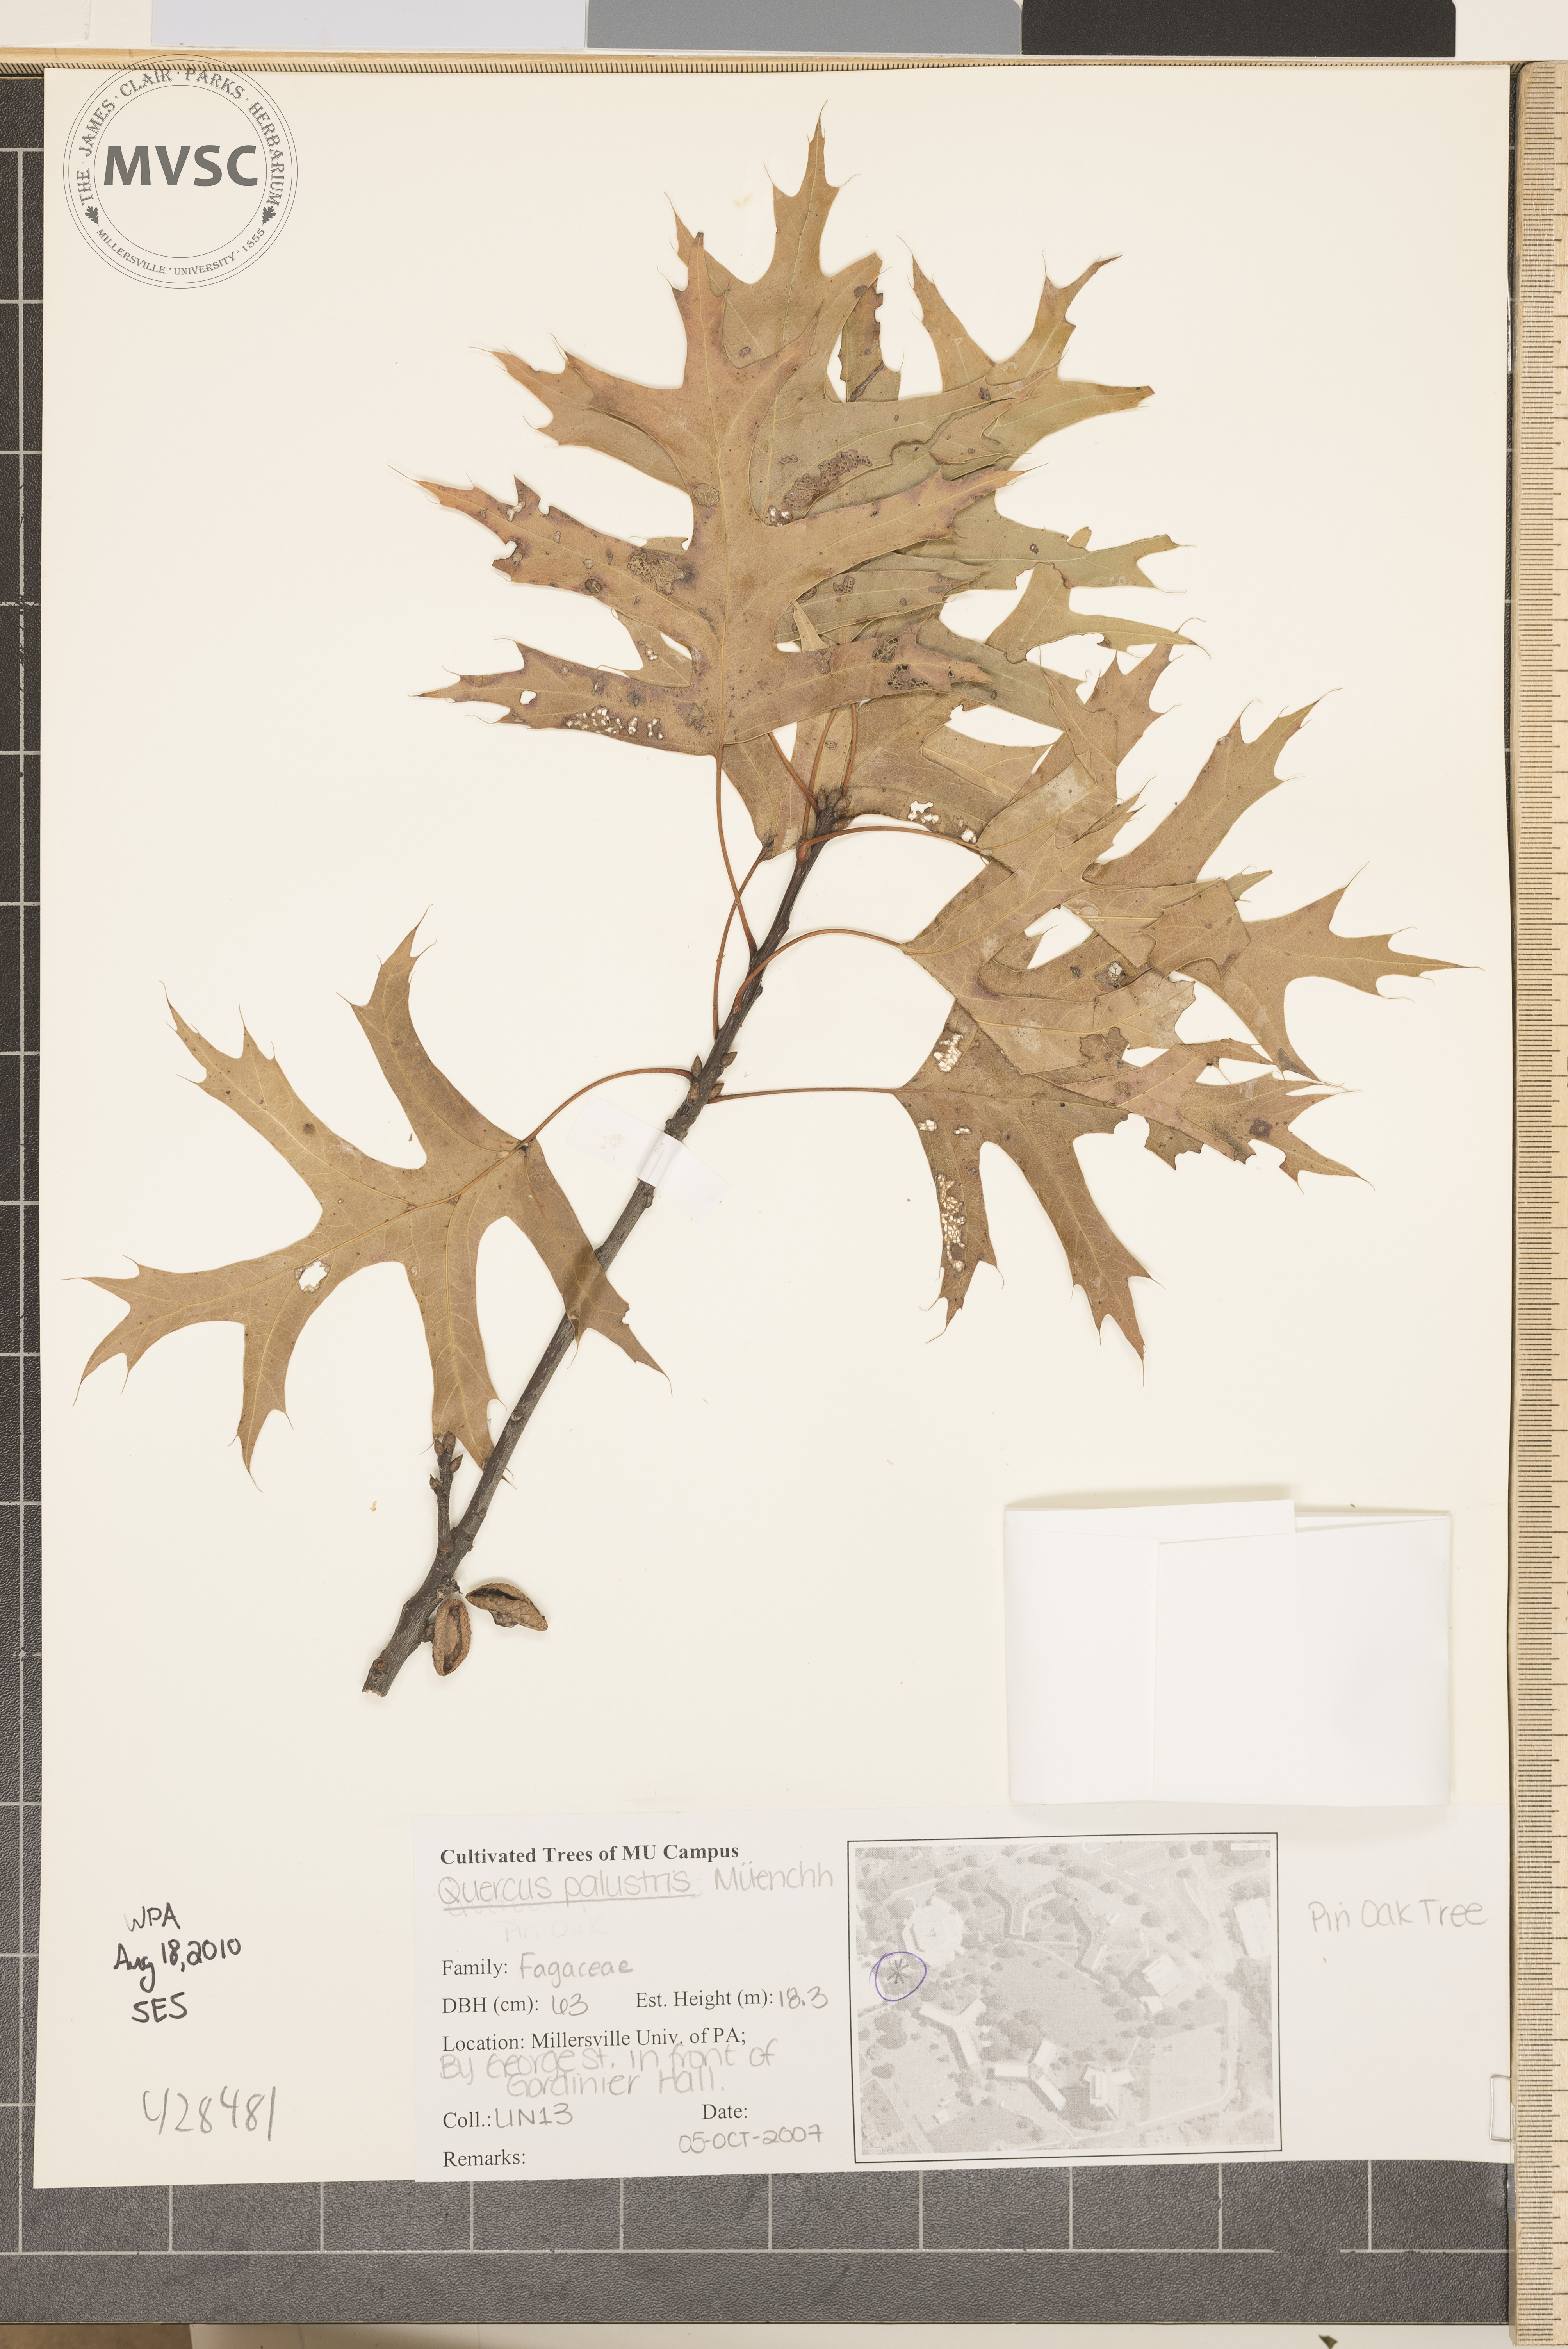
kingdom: Plantae
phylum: Tracheophyta
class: Magnoliopsida
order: Fagales
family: Fagaceae
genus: Quercus
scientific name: Quercus palustris
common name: Pin Oak
